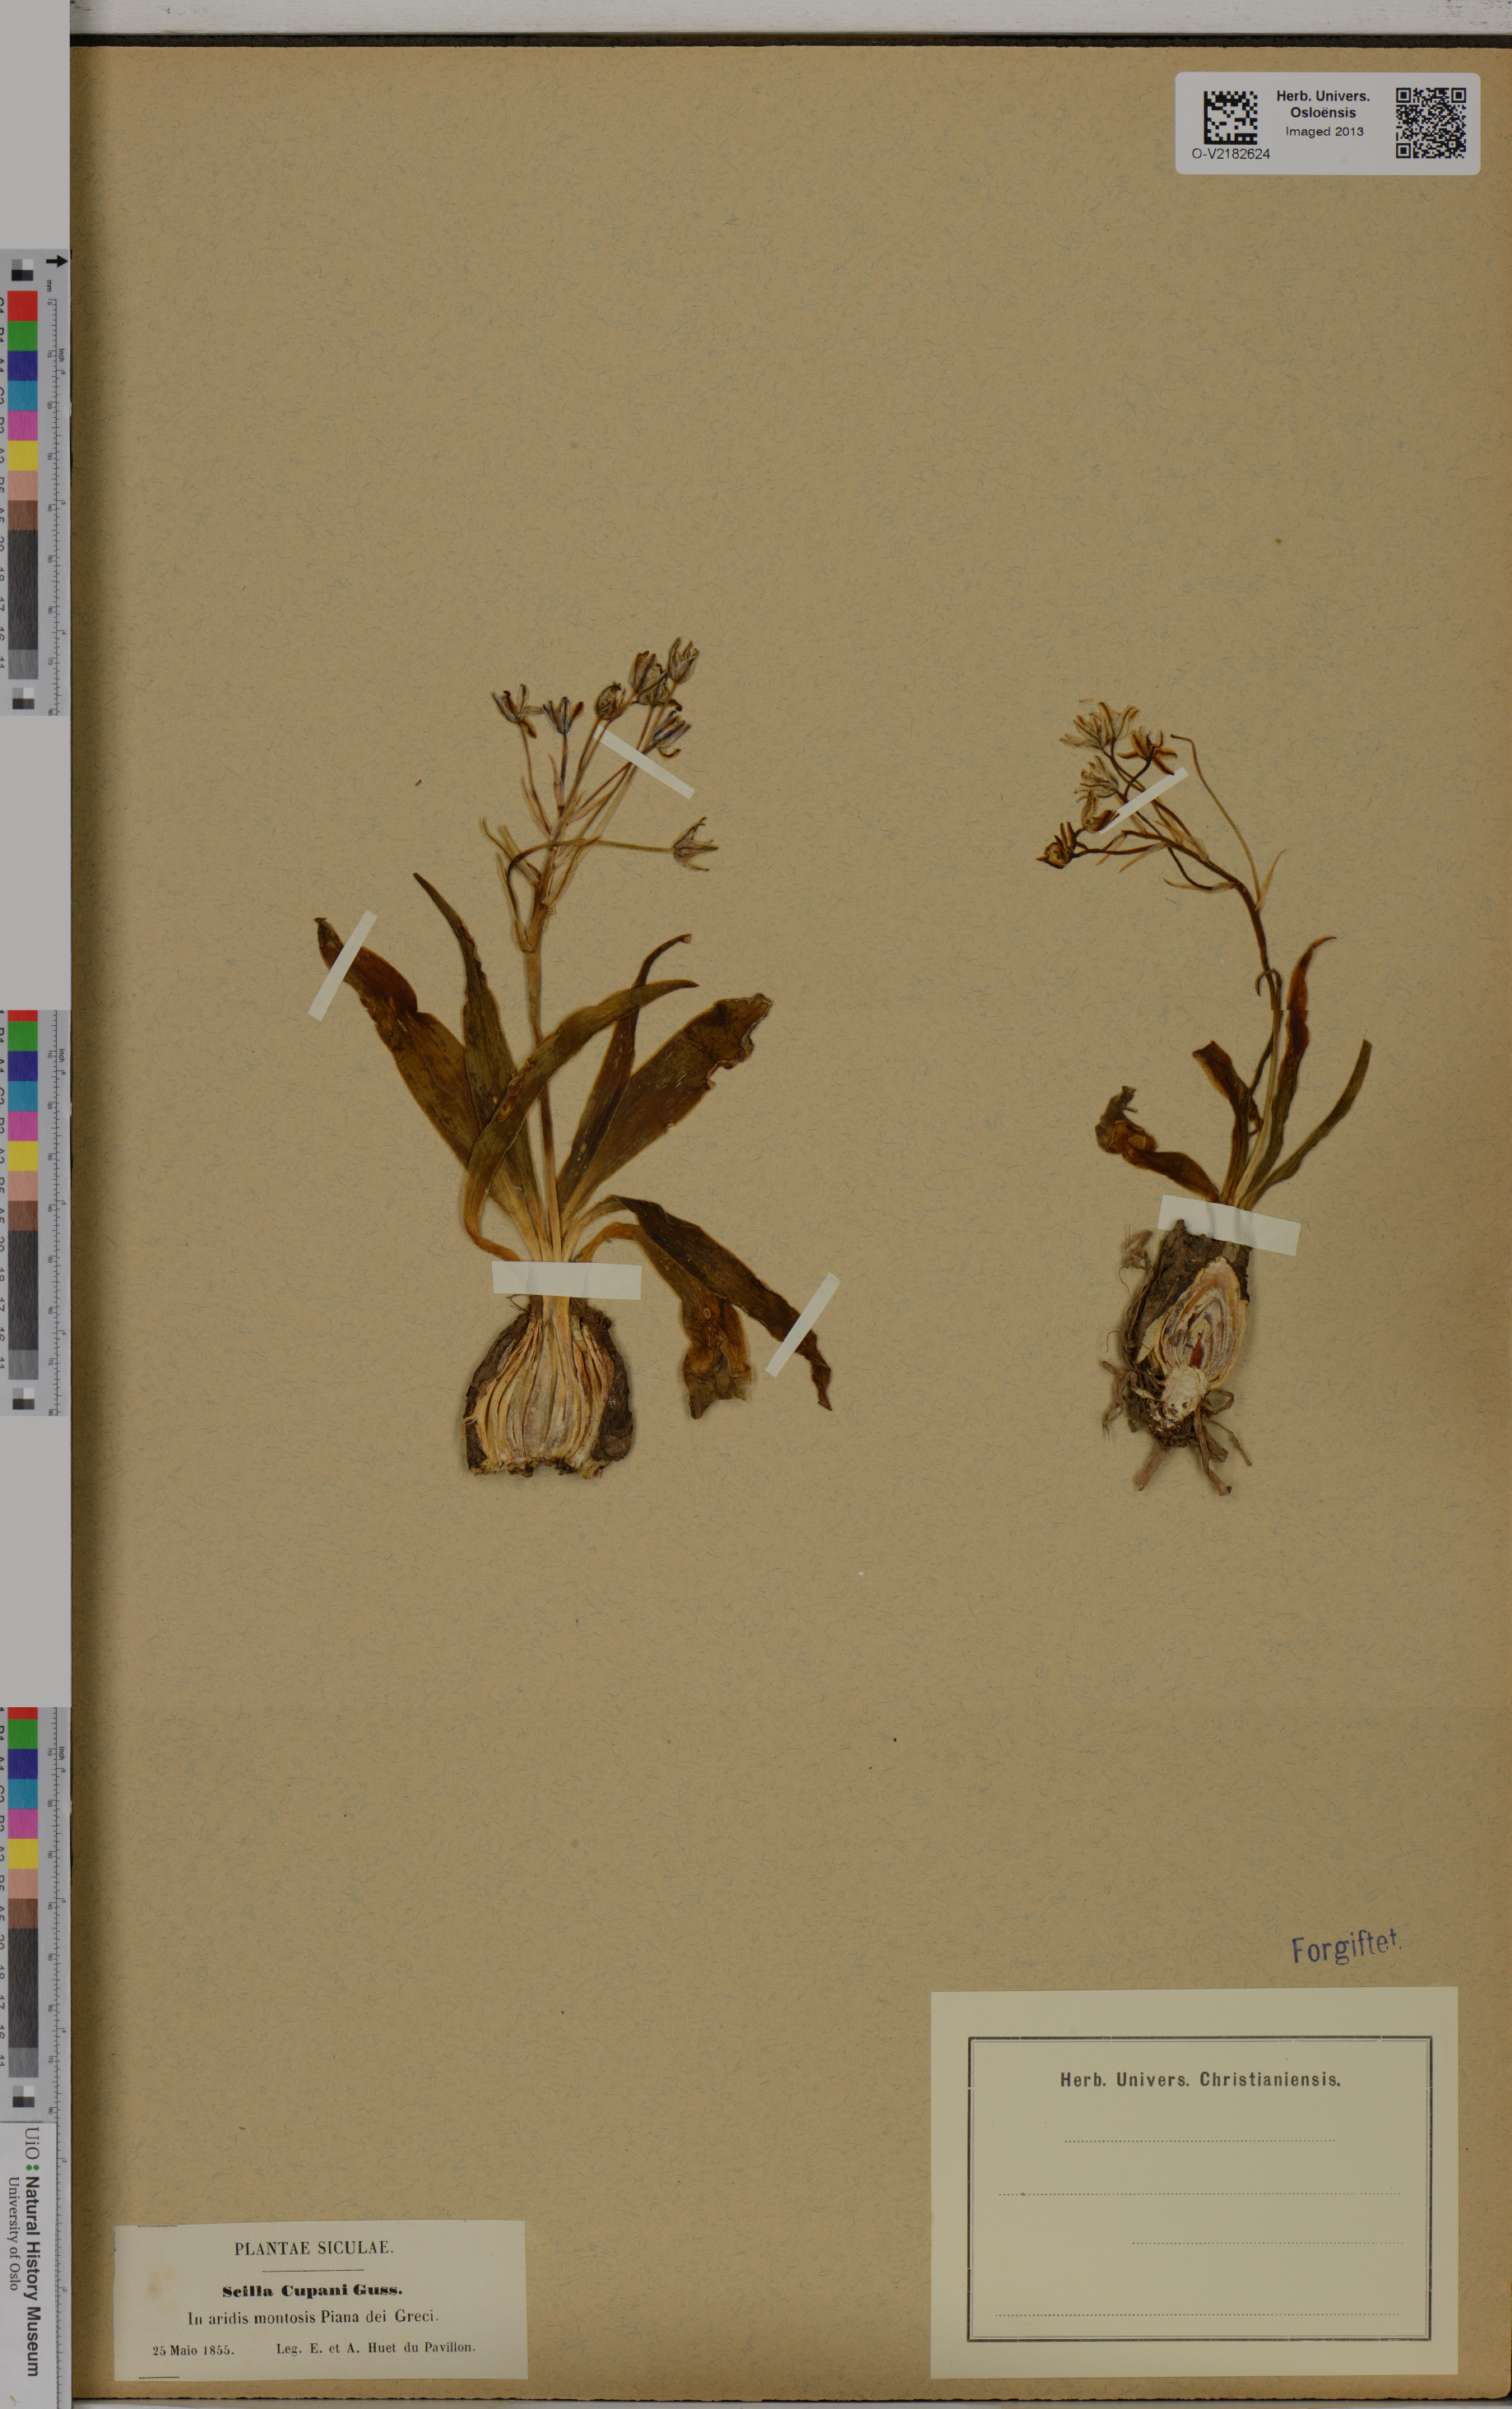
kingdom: Plantae
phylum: Tracheophyta
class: Liliopsida
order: Asparagales
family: Asparagaceae
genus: Scilla
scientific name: Scilla peruviana
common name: Portuguese squill
